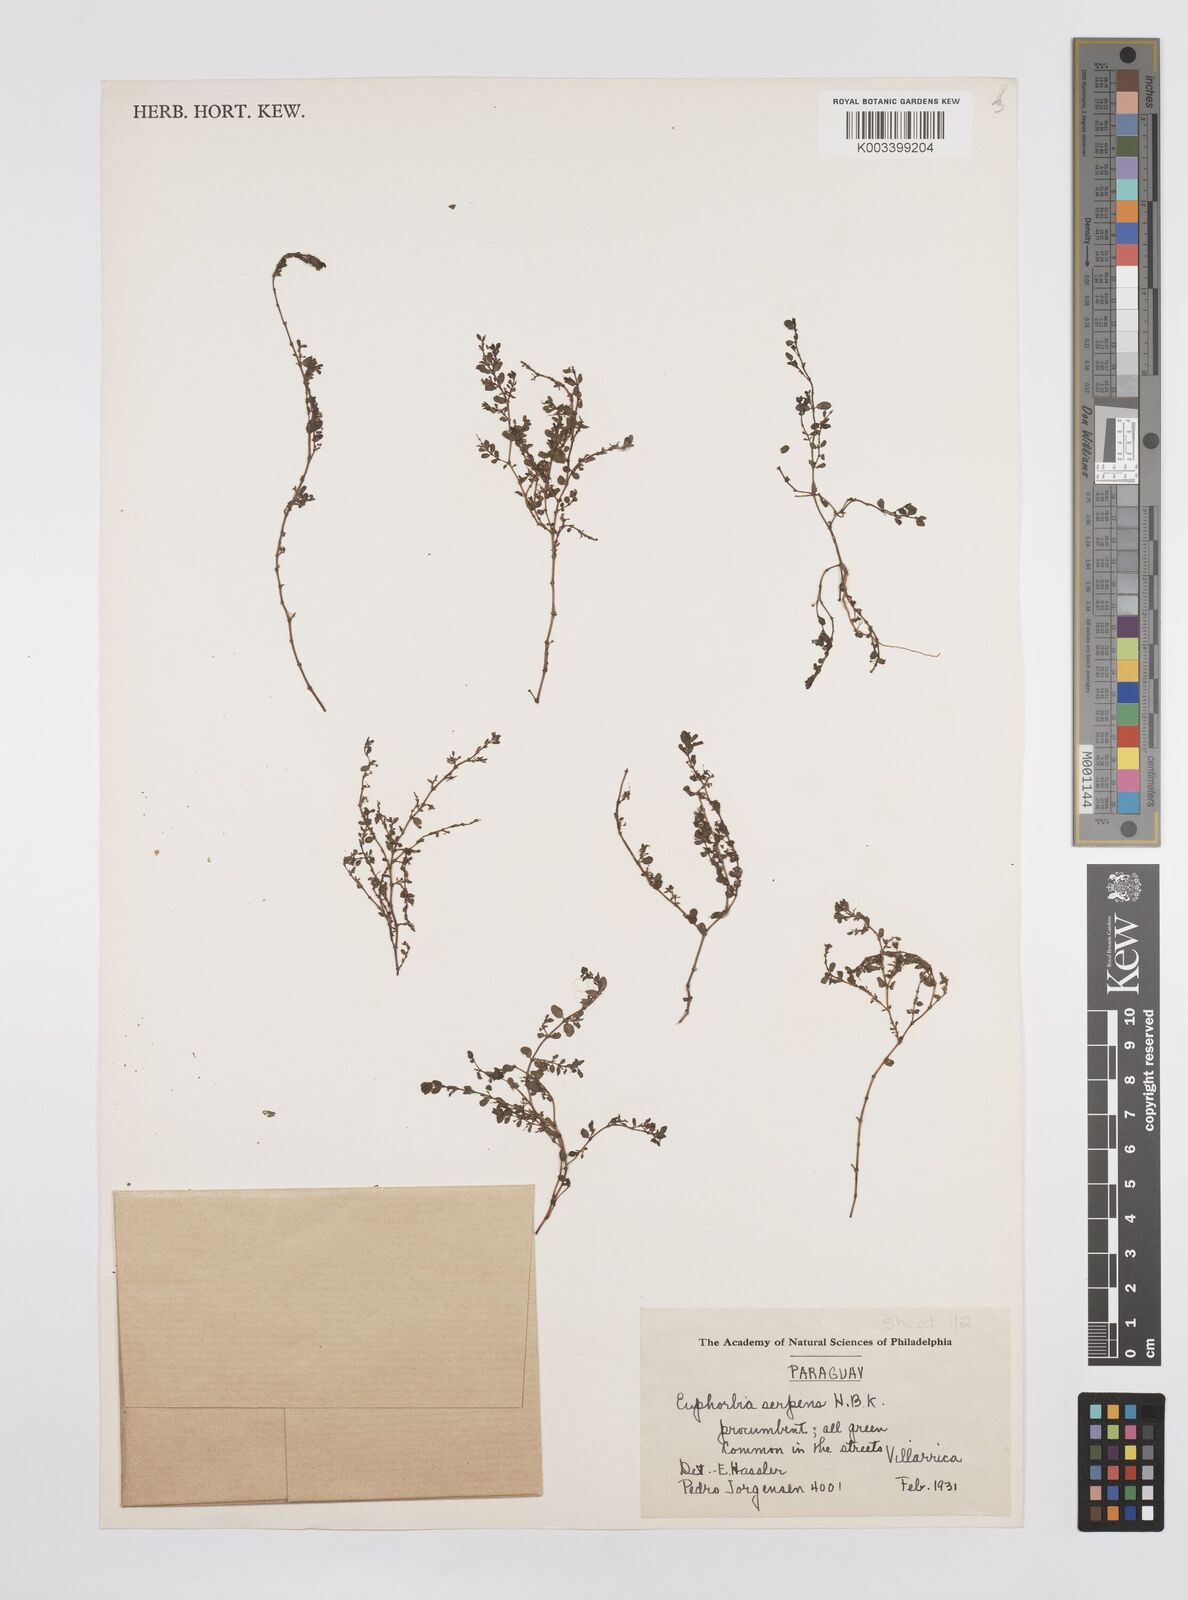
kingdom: Plantae
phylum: Tracheophyta
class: Magnoliopsida
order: Malpighiales
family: Euphorbiaceae
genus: Euphorbia
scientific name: Euphorbia serpens
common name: Matted sandmat
